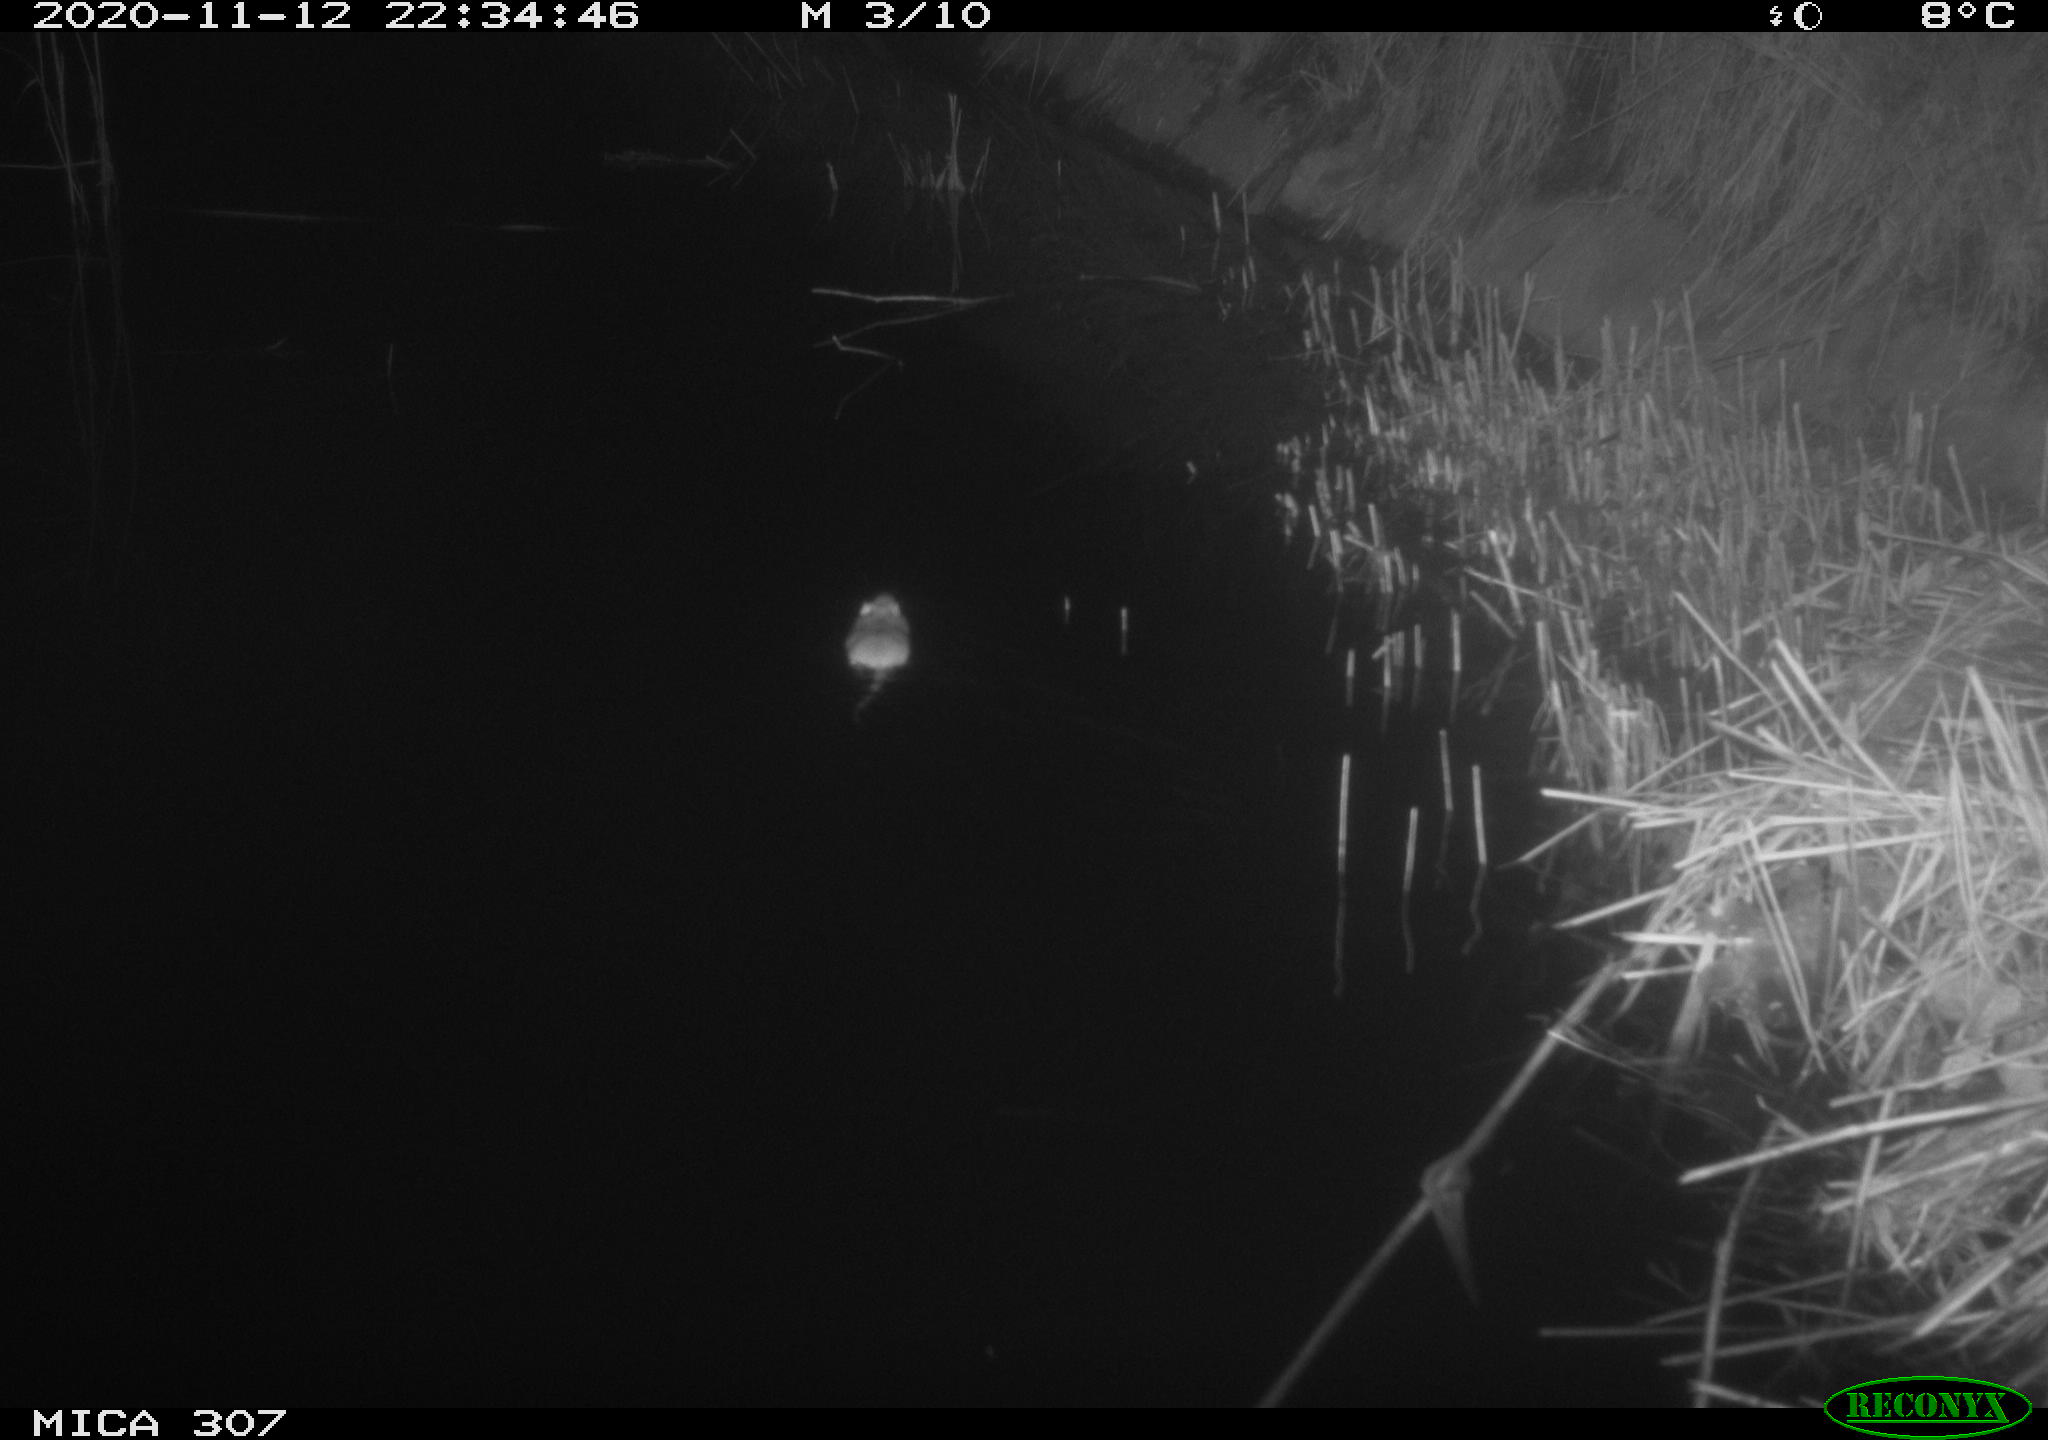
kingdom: Animalia
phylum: Chordata
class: Mammalia
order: Rodentia
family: Muridae
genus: Rattus
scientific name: Rattus norvegicus
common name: Brown rat
